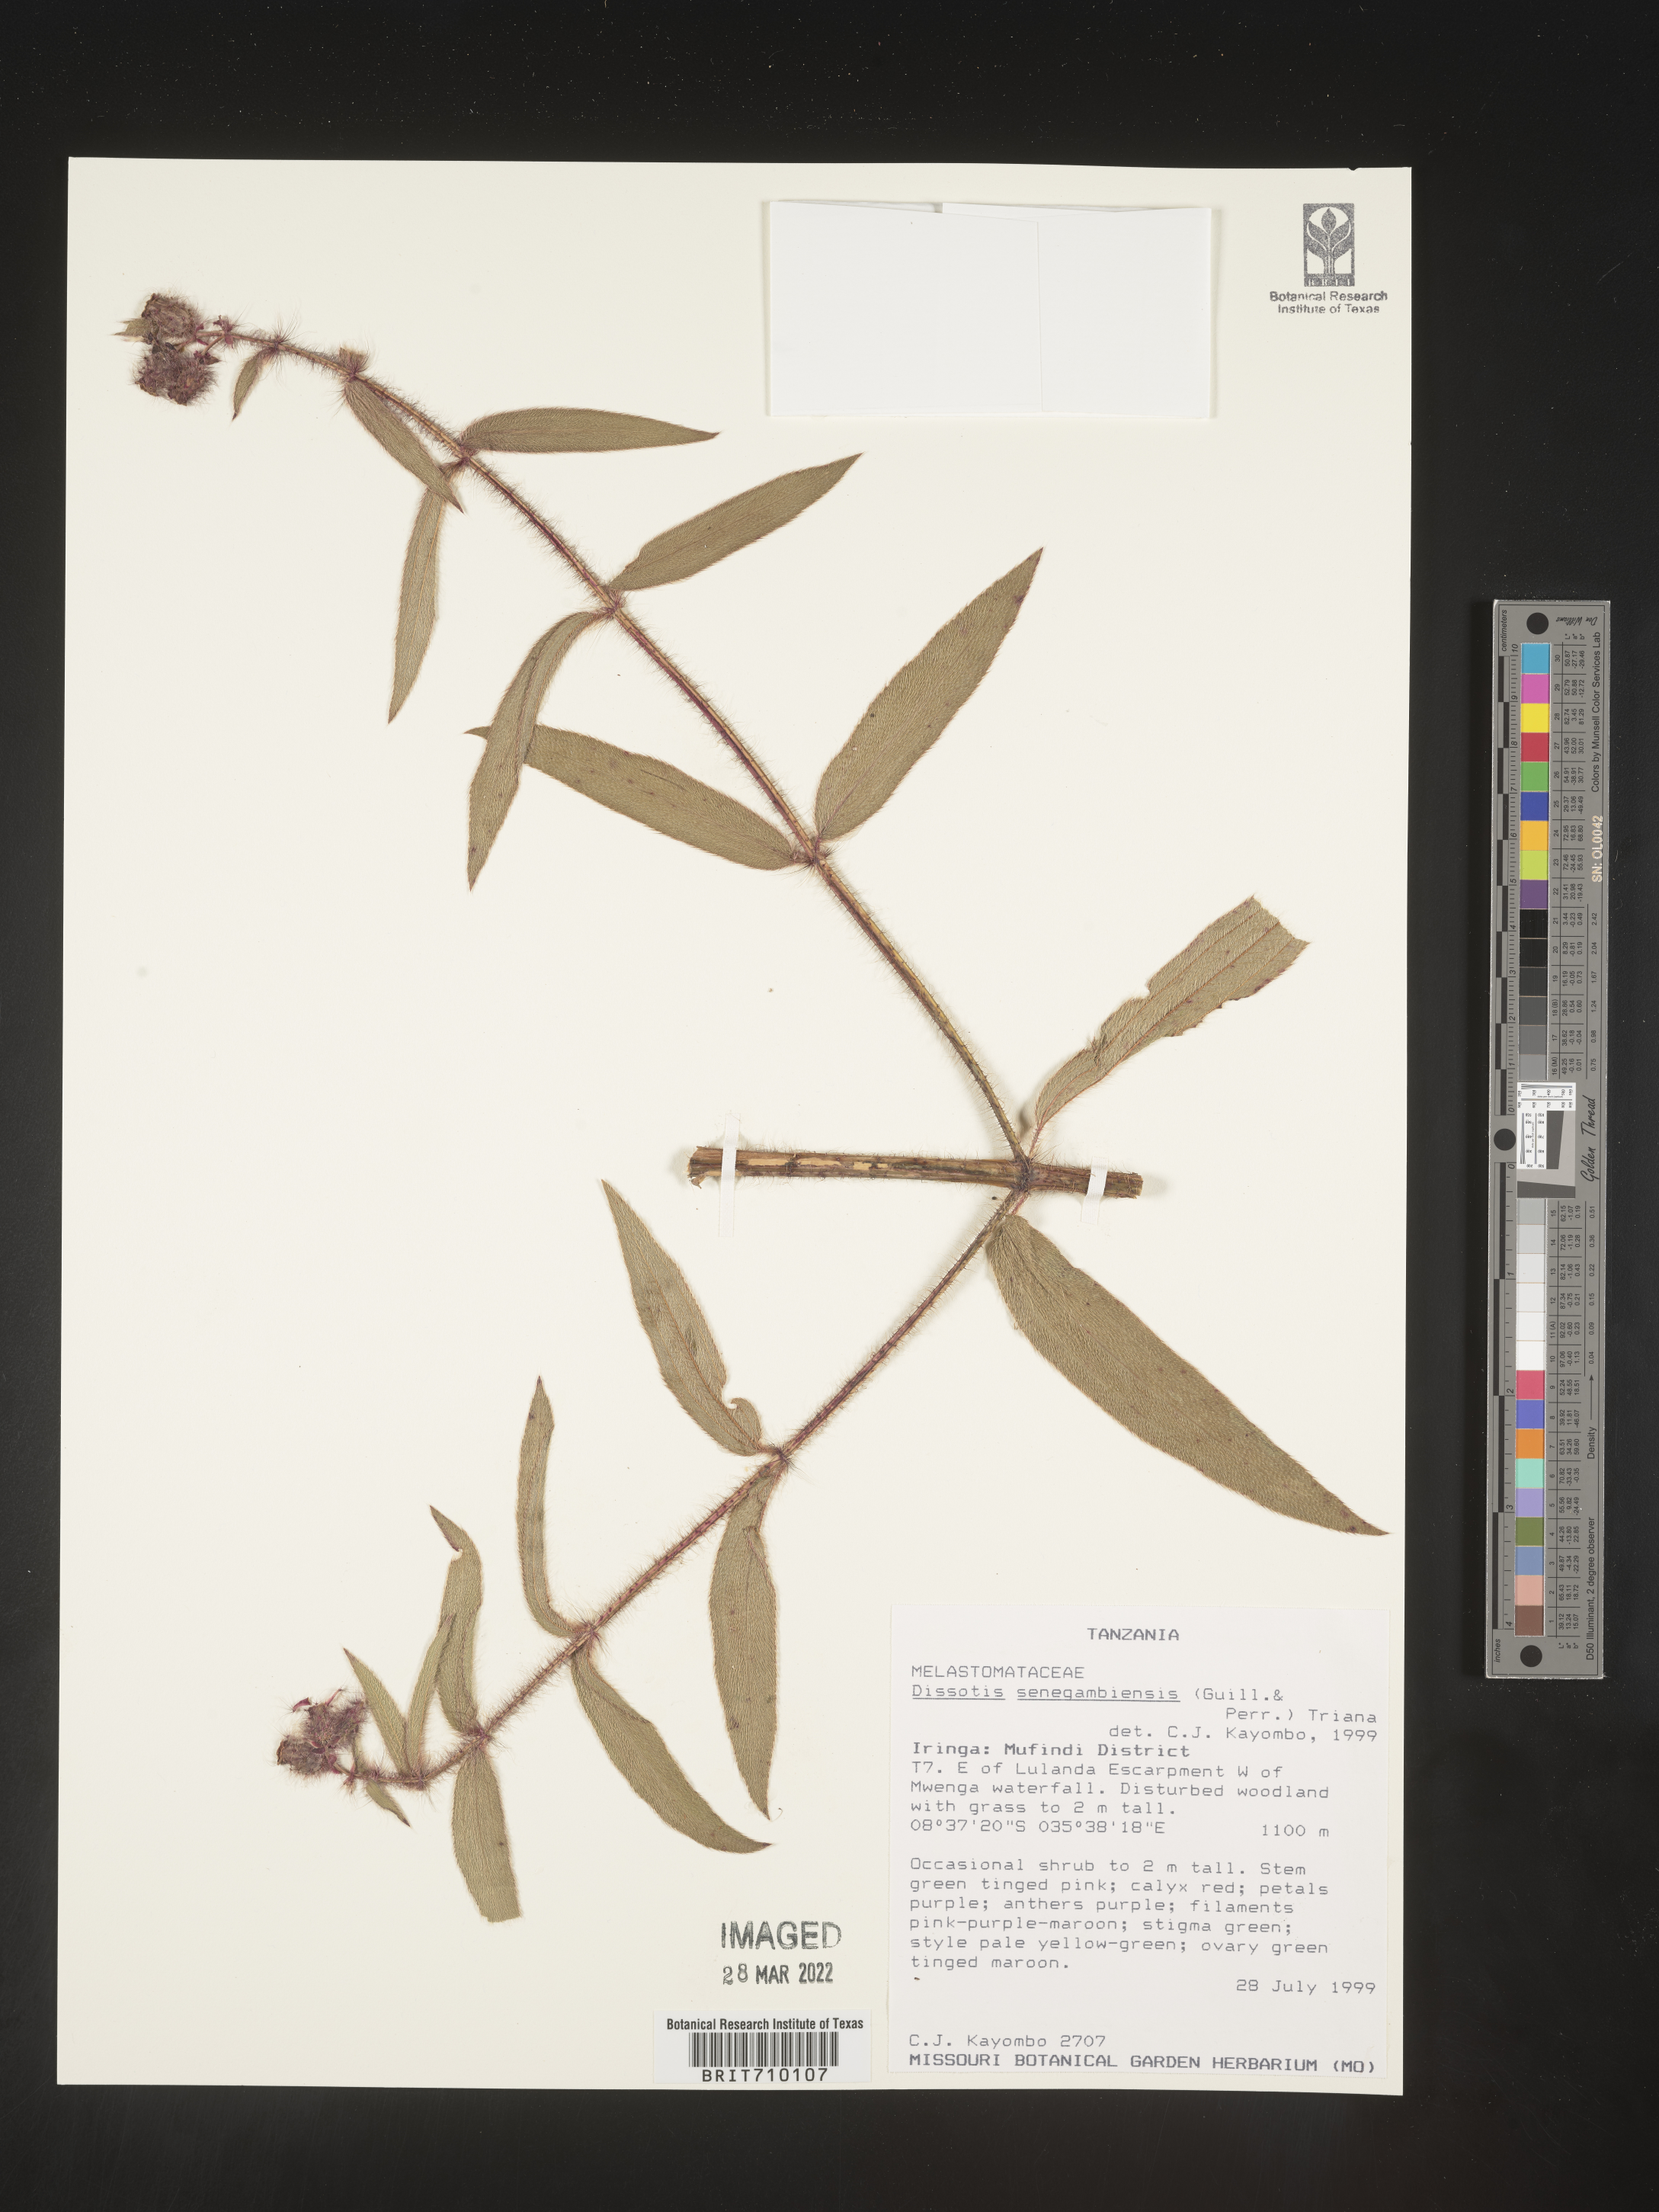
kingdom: Plantae
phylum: Tracheophyta
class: Magnoliopsida
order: Myrtales
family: Melastomataceae
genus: Dissotis
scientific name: Dissotis
